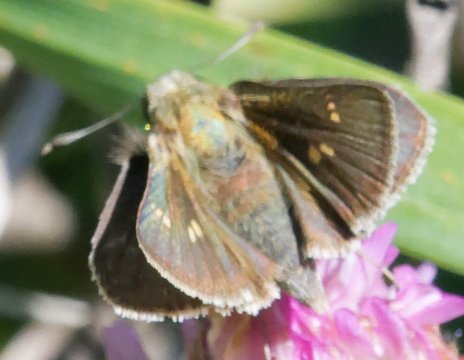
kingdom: Animalia
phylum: Arthropoda
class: Insecta
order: Lepidoptera
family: Hesperiidae
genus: Polites
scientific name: Polites themistocles
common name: Tawny-edged Skipper
